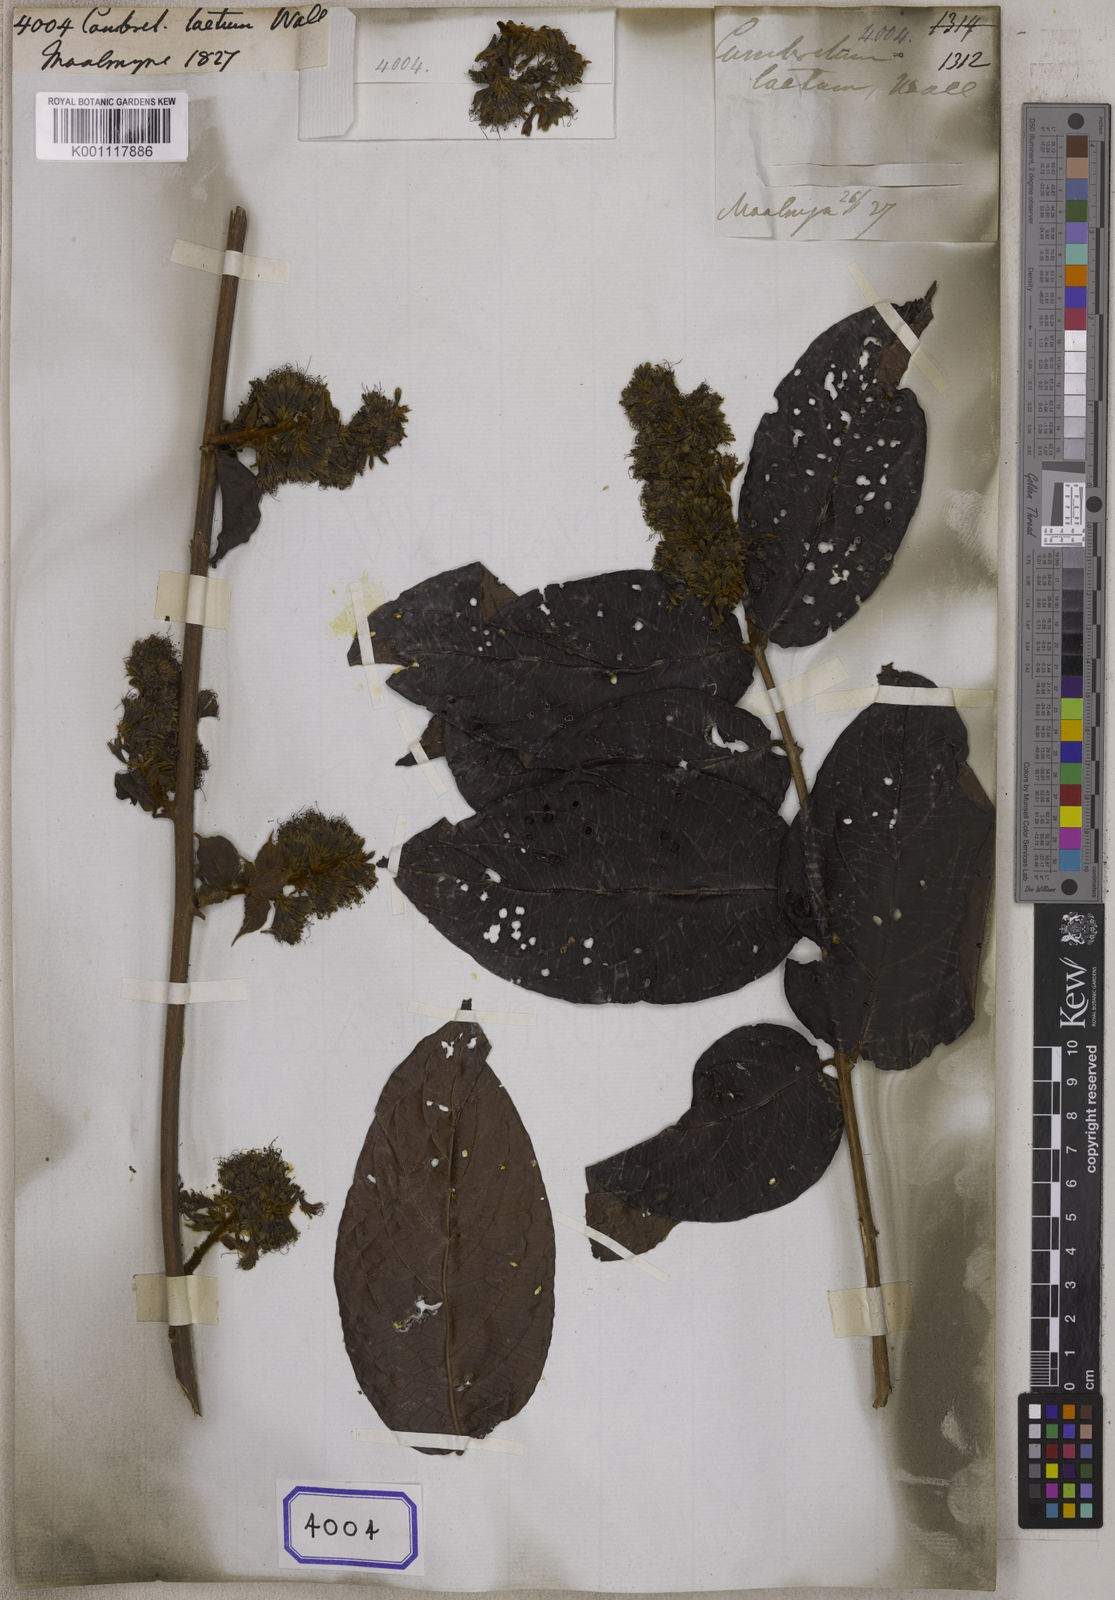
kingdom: Plantae
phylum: Tracheophyta
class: Magnoliopsida
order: Myrtales
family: Combretaceae
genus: Combretum
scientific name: Combretum pilosum
